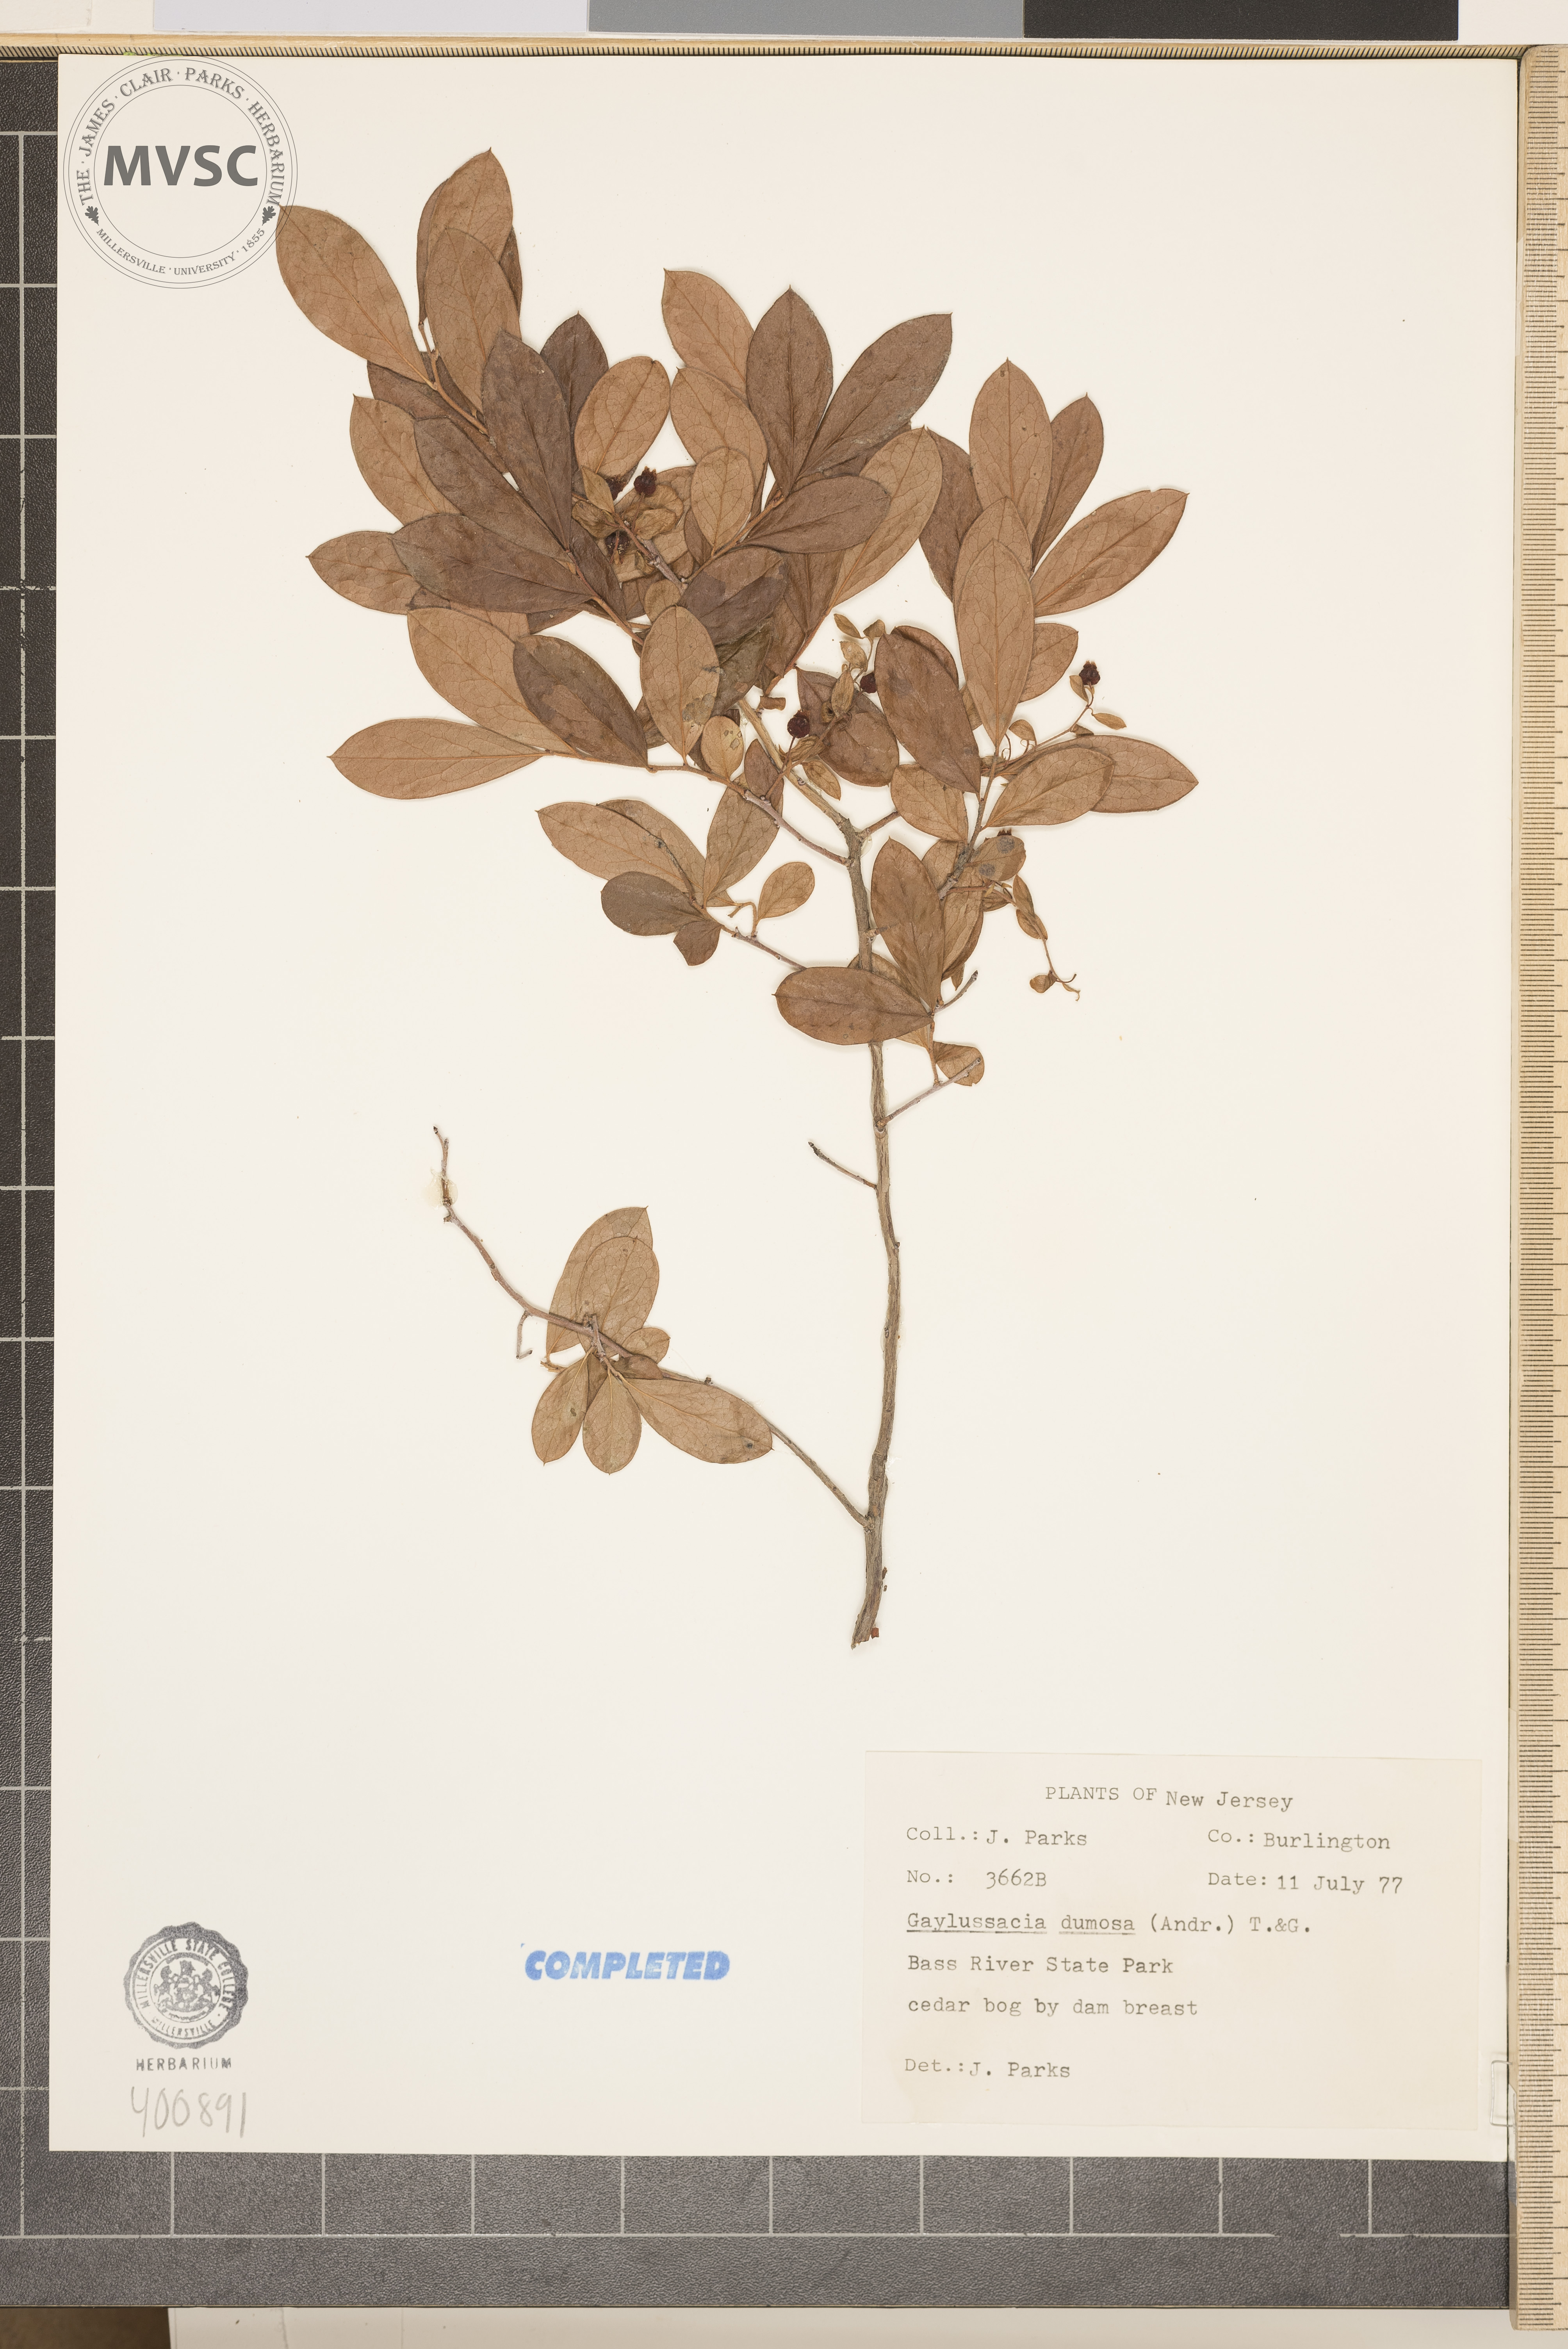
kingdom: Plantae
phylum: Tracheophyta
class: Magnoliopsida
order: Ericales
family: Ericaceae
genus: Gaylussacia
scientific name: Gaylussacia dumosa
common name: dwarf huckleberry
